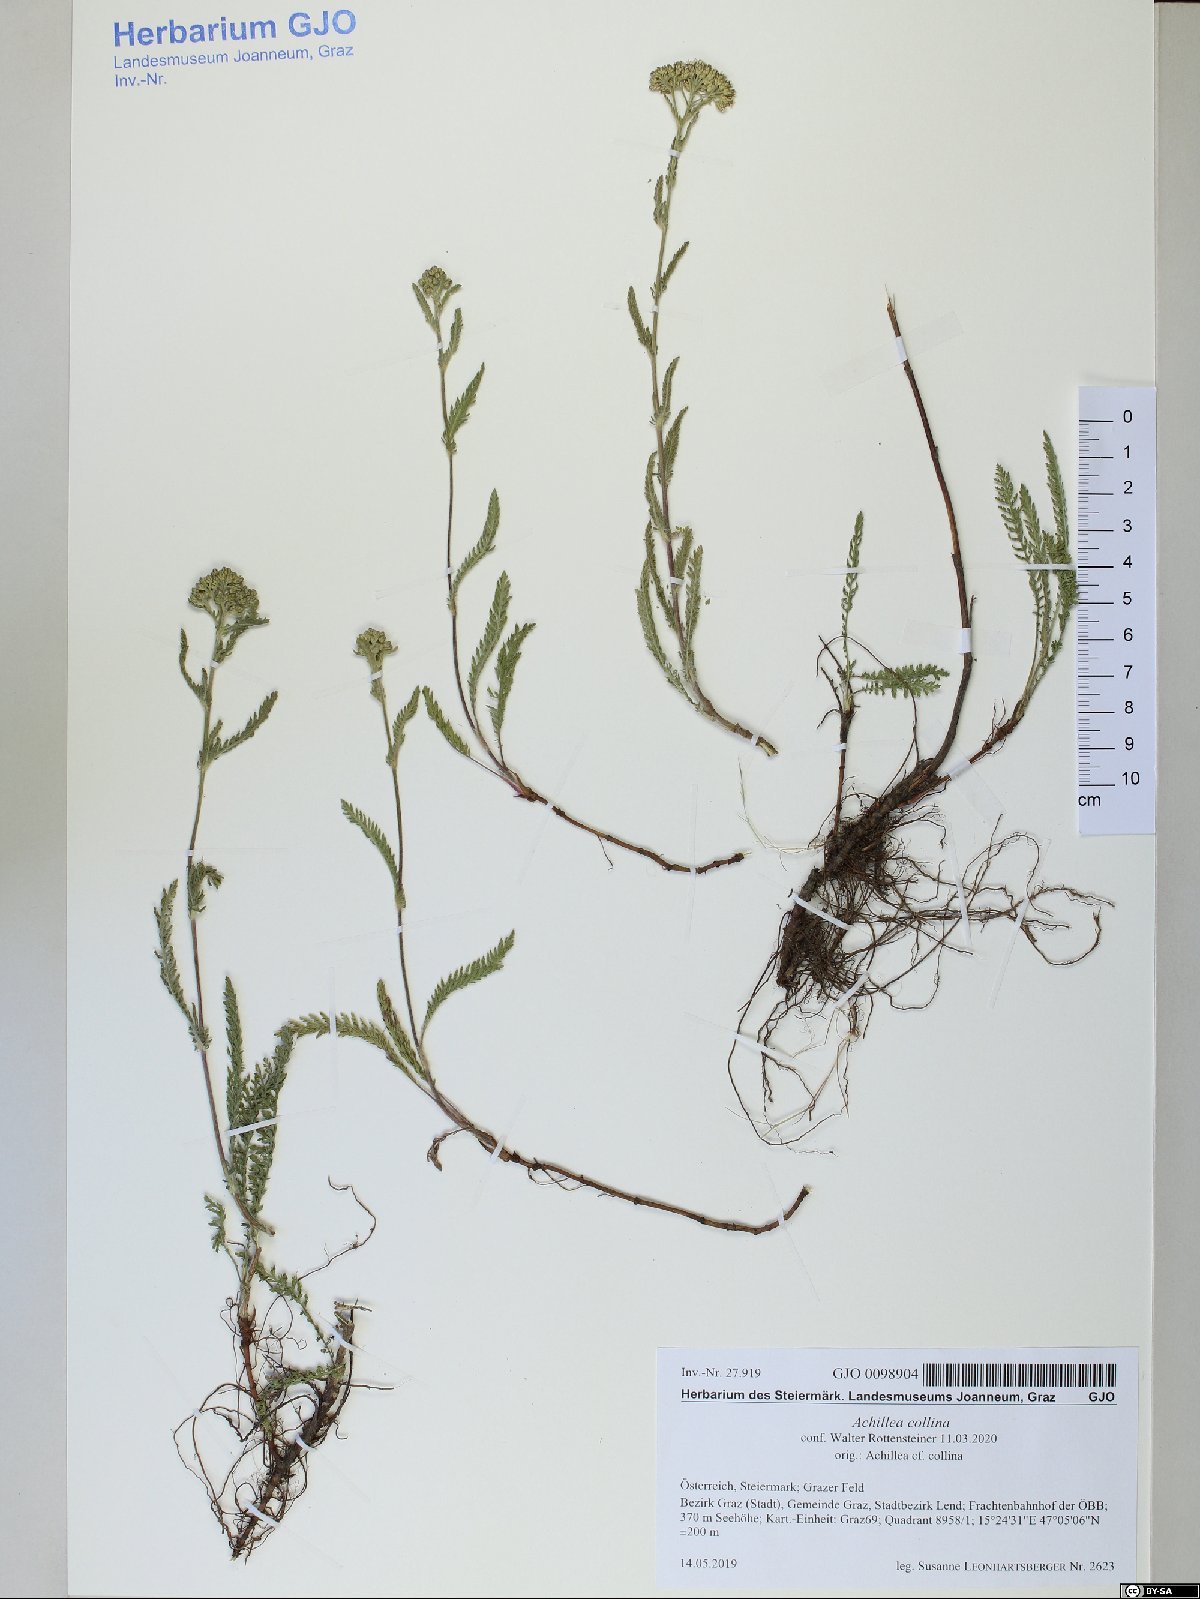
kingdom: Plantae
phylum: Tracheophyta
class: Magnoliopsida
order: Asterales
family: Asteraceae
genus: Achillea
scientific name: Achillea collina
